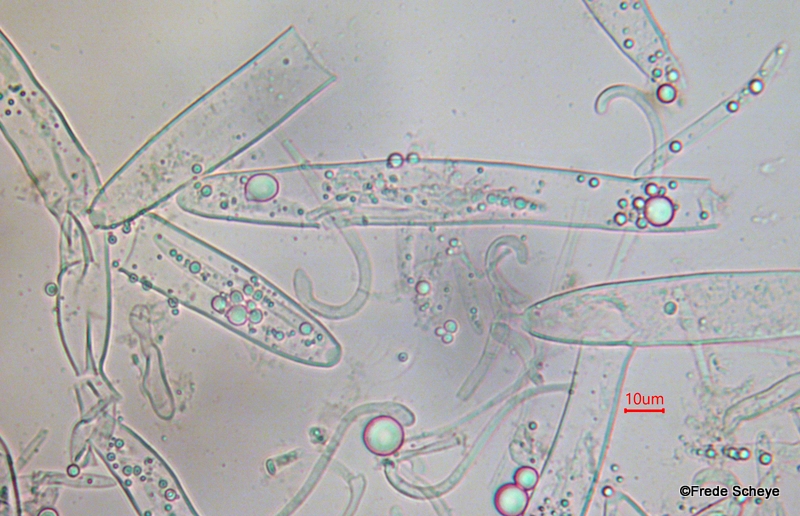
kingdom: Fungi
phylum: Ascomycota
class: Geoglossomycetes
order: Geoglossales
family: Geoglossaceae
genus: Geoglossum
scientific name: Geoglossum
